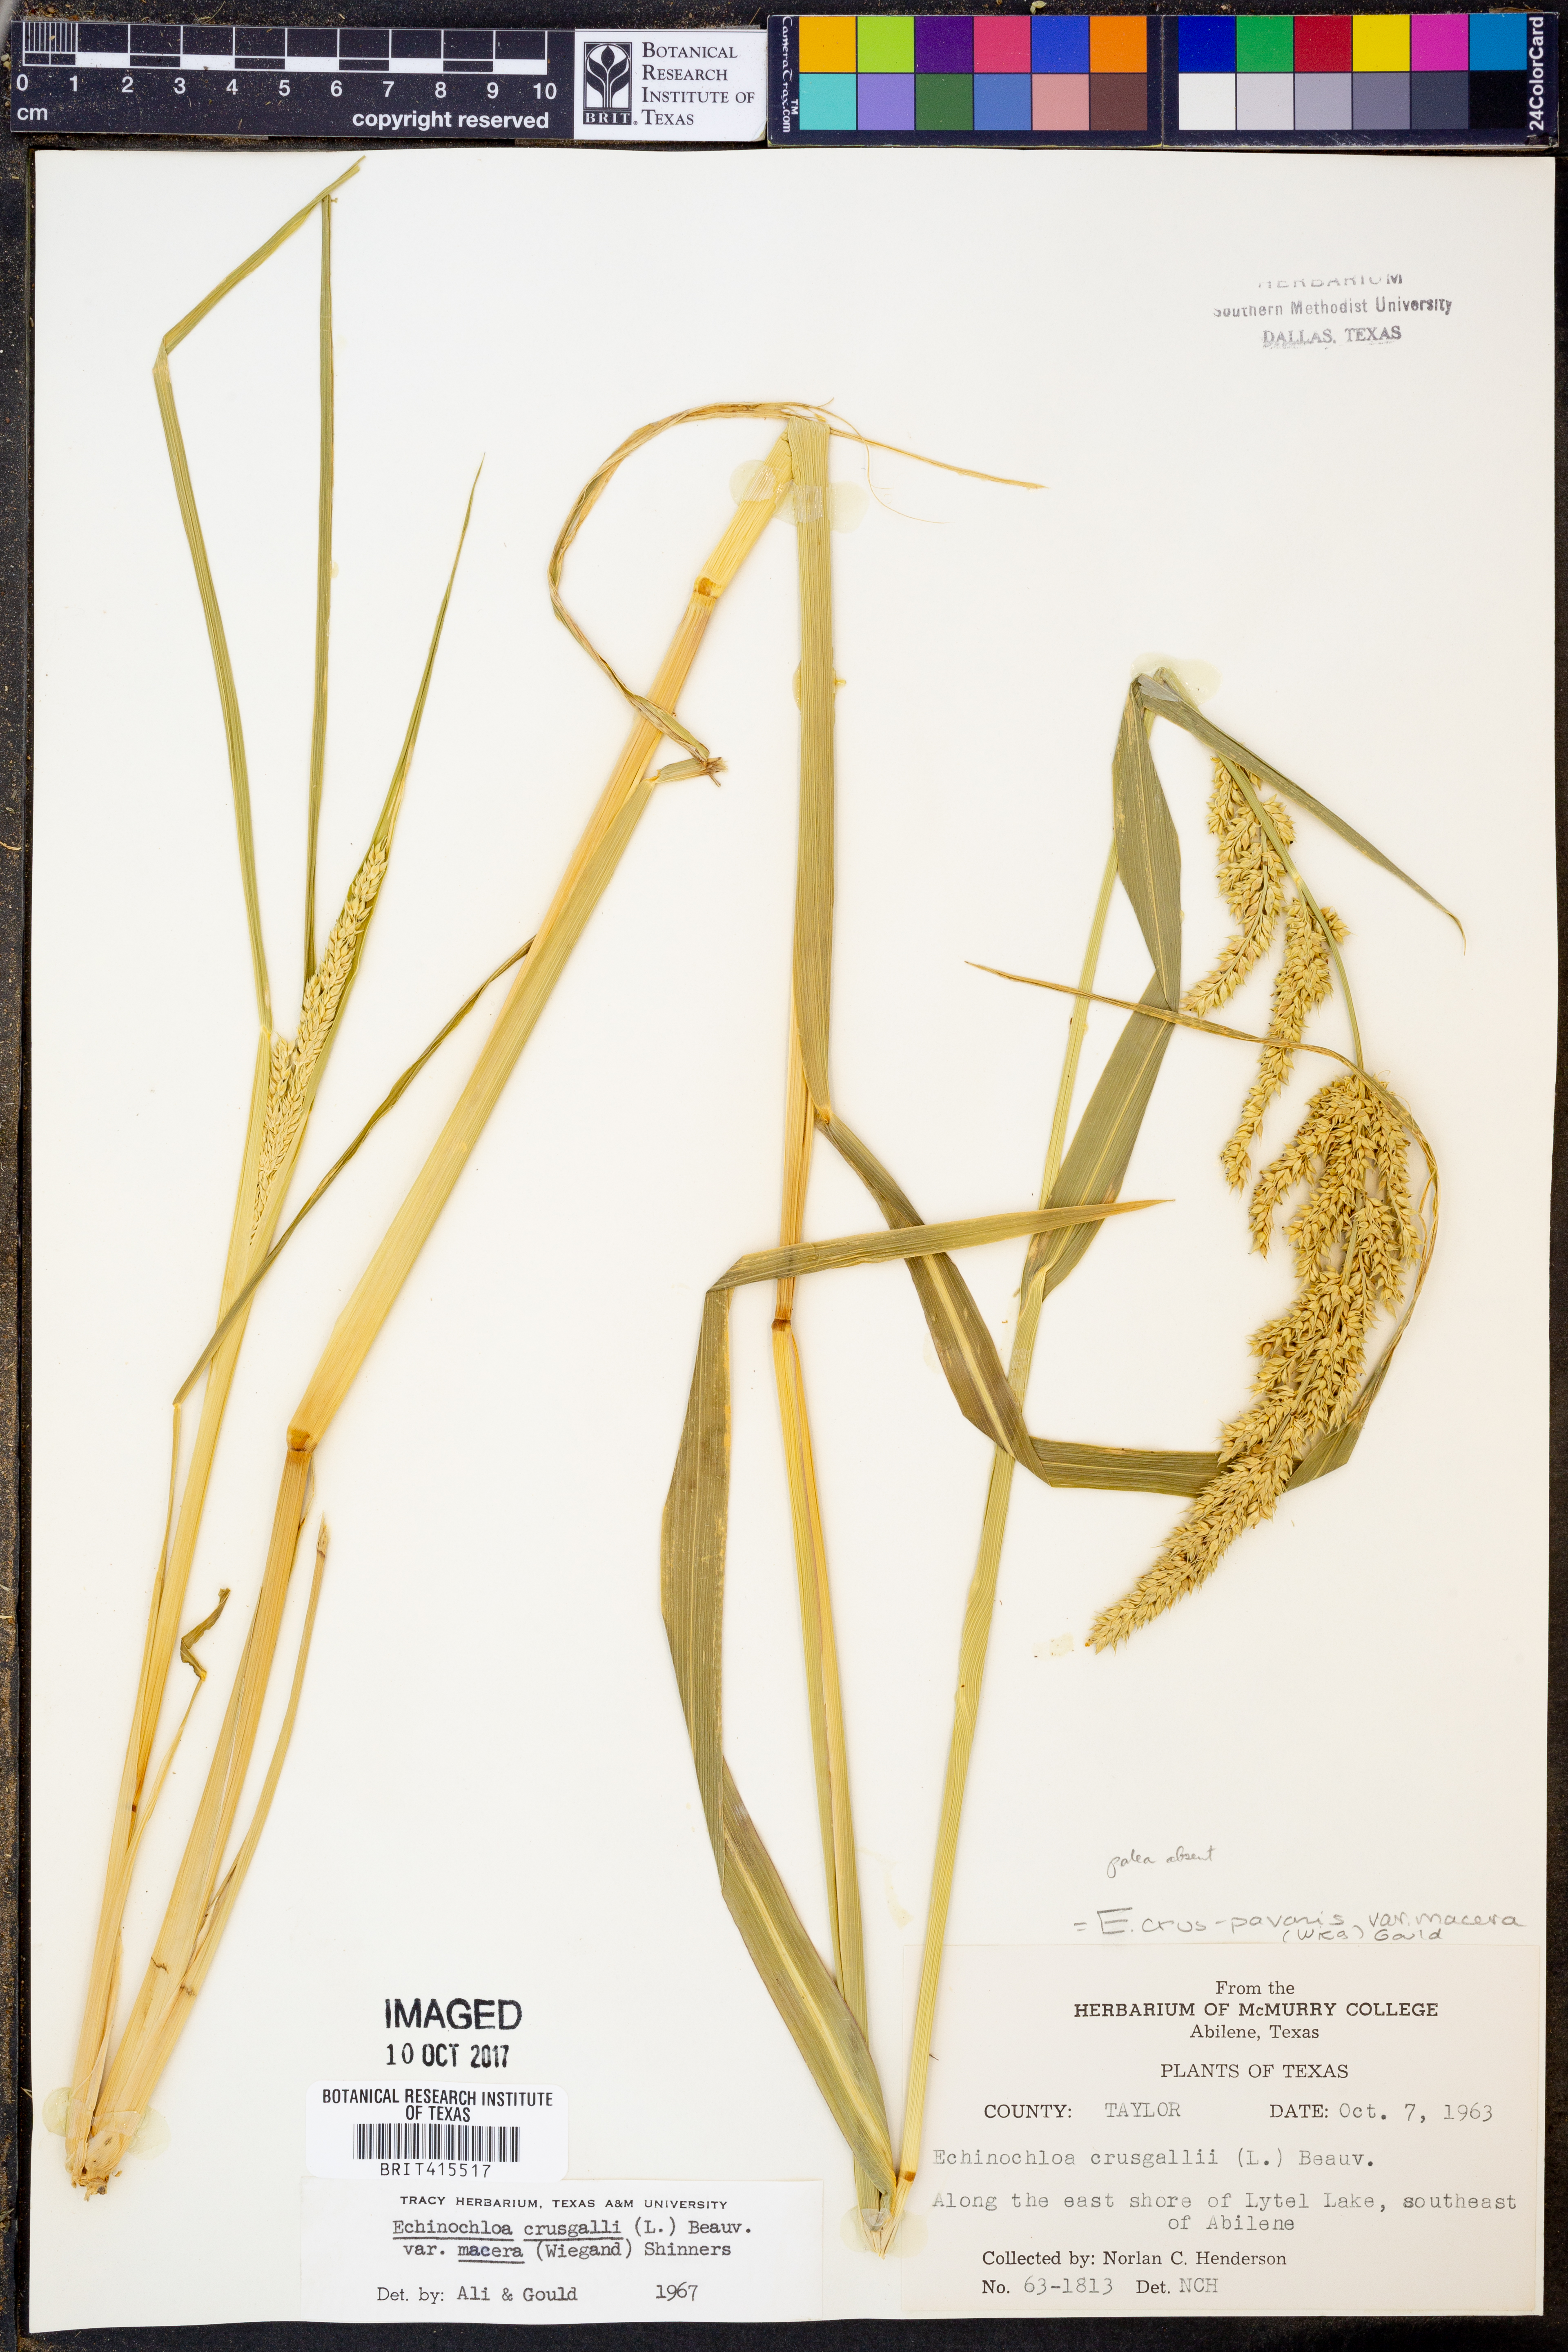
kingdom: Plantae
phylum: Tracheophyta
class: Liliopsida
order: Poales
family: Poaceae
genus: Echinochloa
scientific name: Echinochloa crus-pavonis
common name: Gulf cockspur grass
